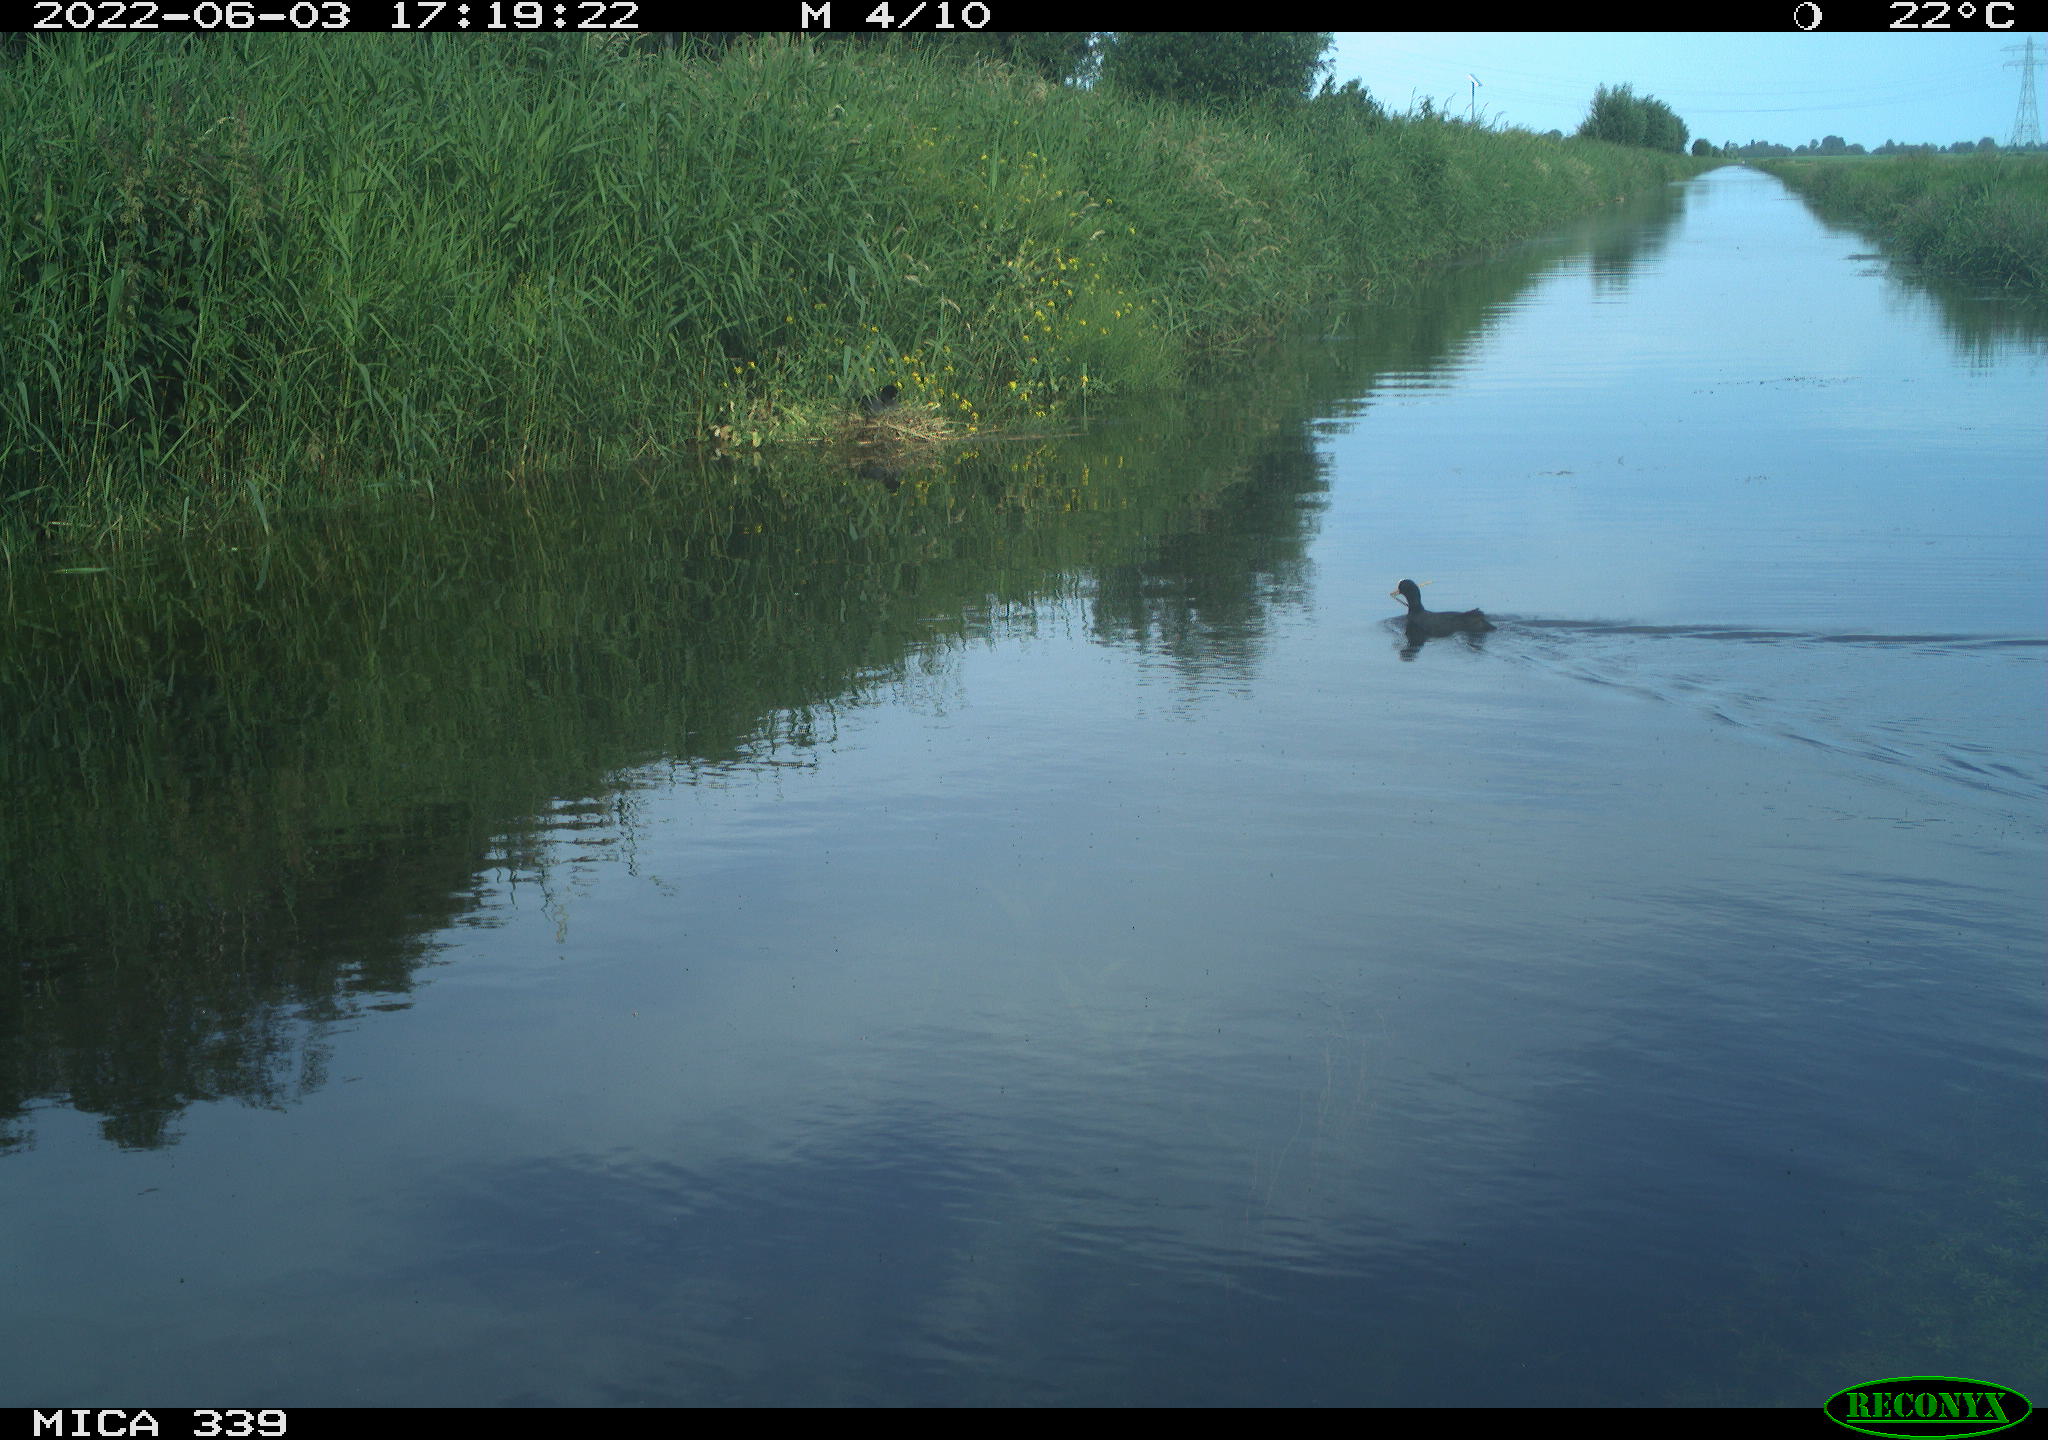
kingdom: Animalia
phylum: Chordata
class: Aves
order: Gruiformes
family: Rallidae
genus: Fulica
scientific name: Fulica atra
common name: Eurasian coot
